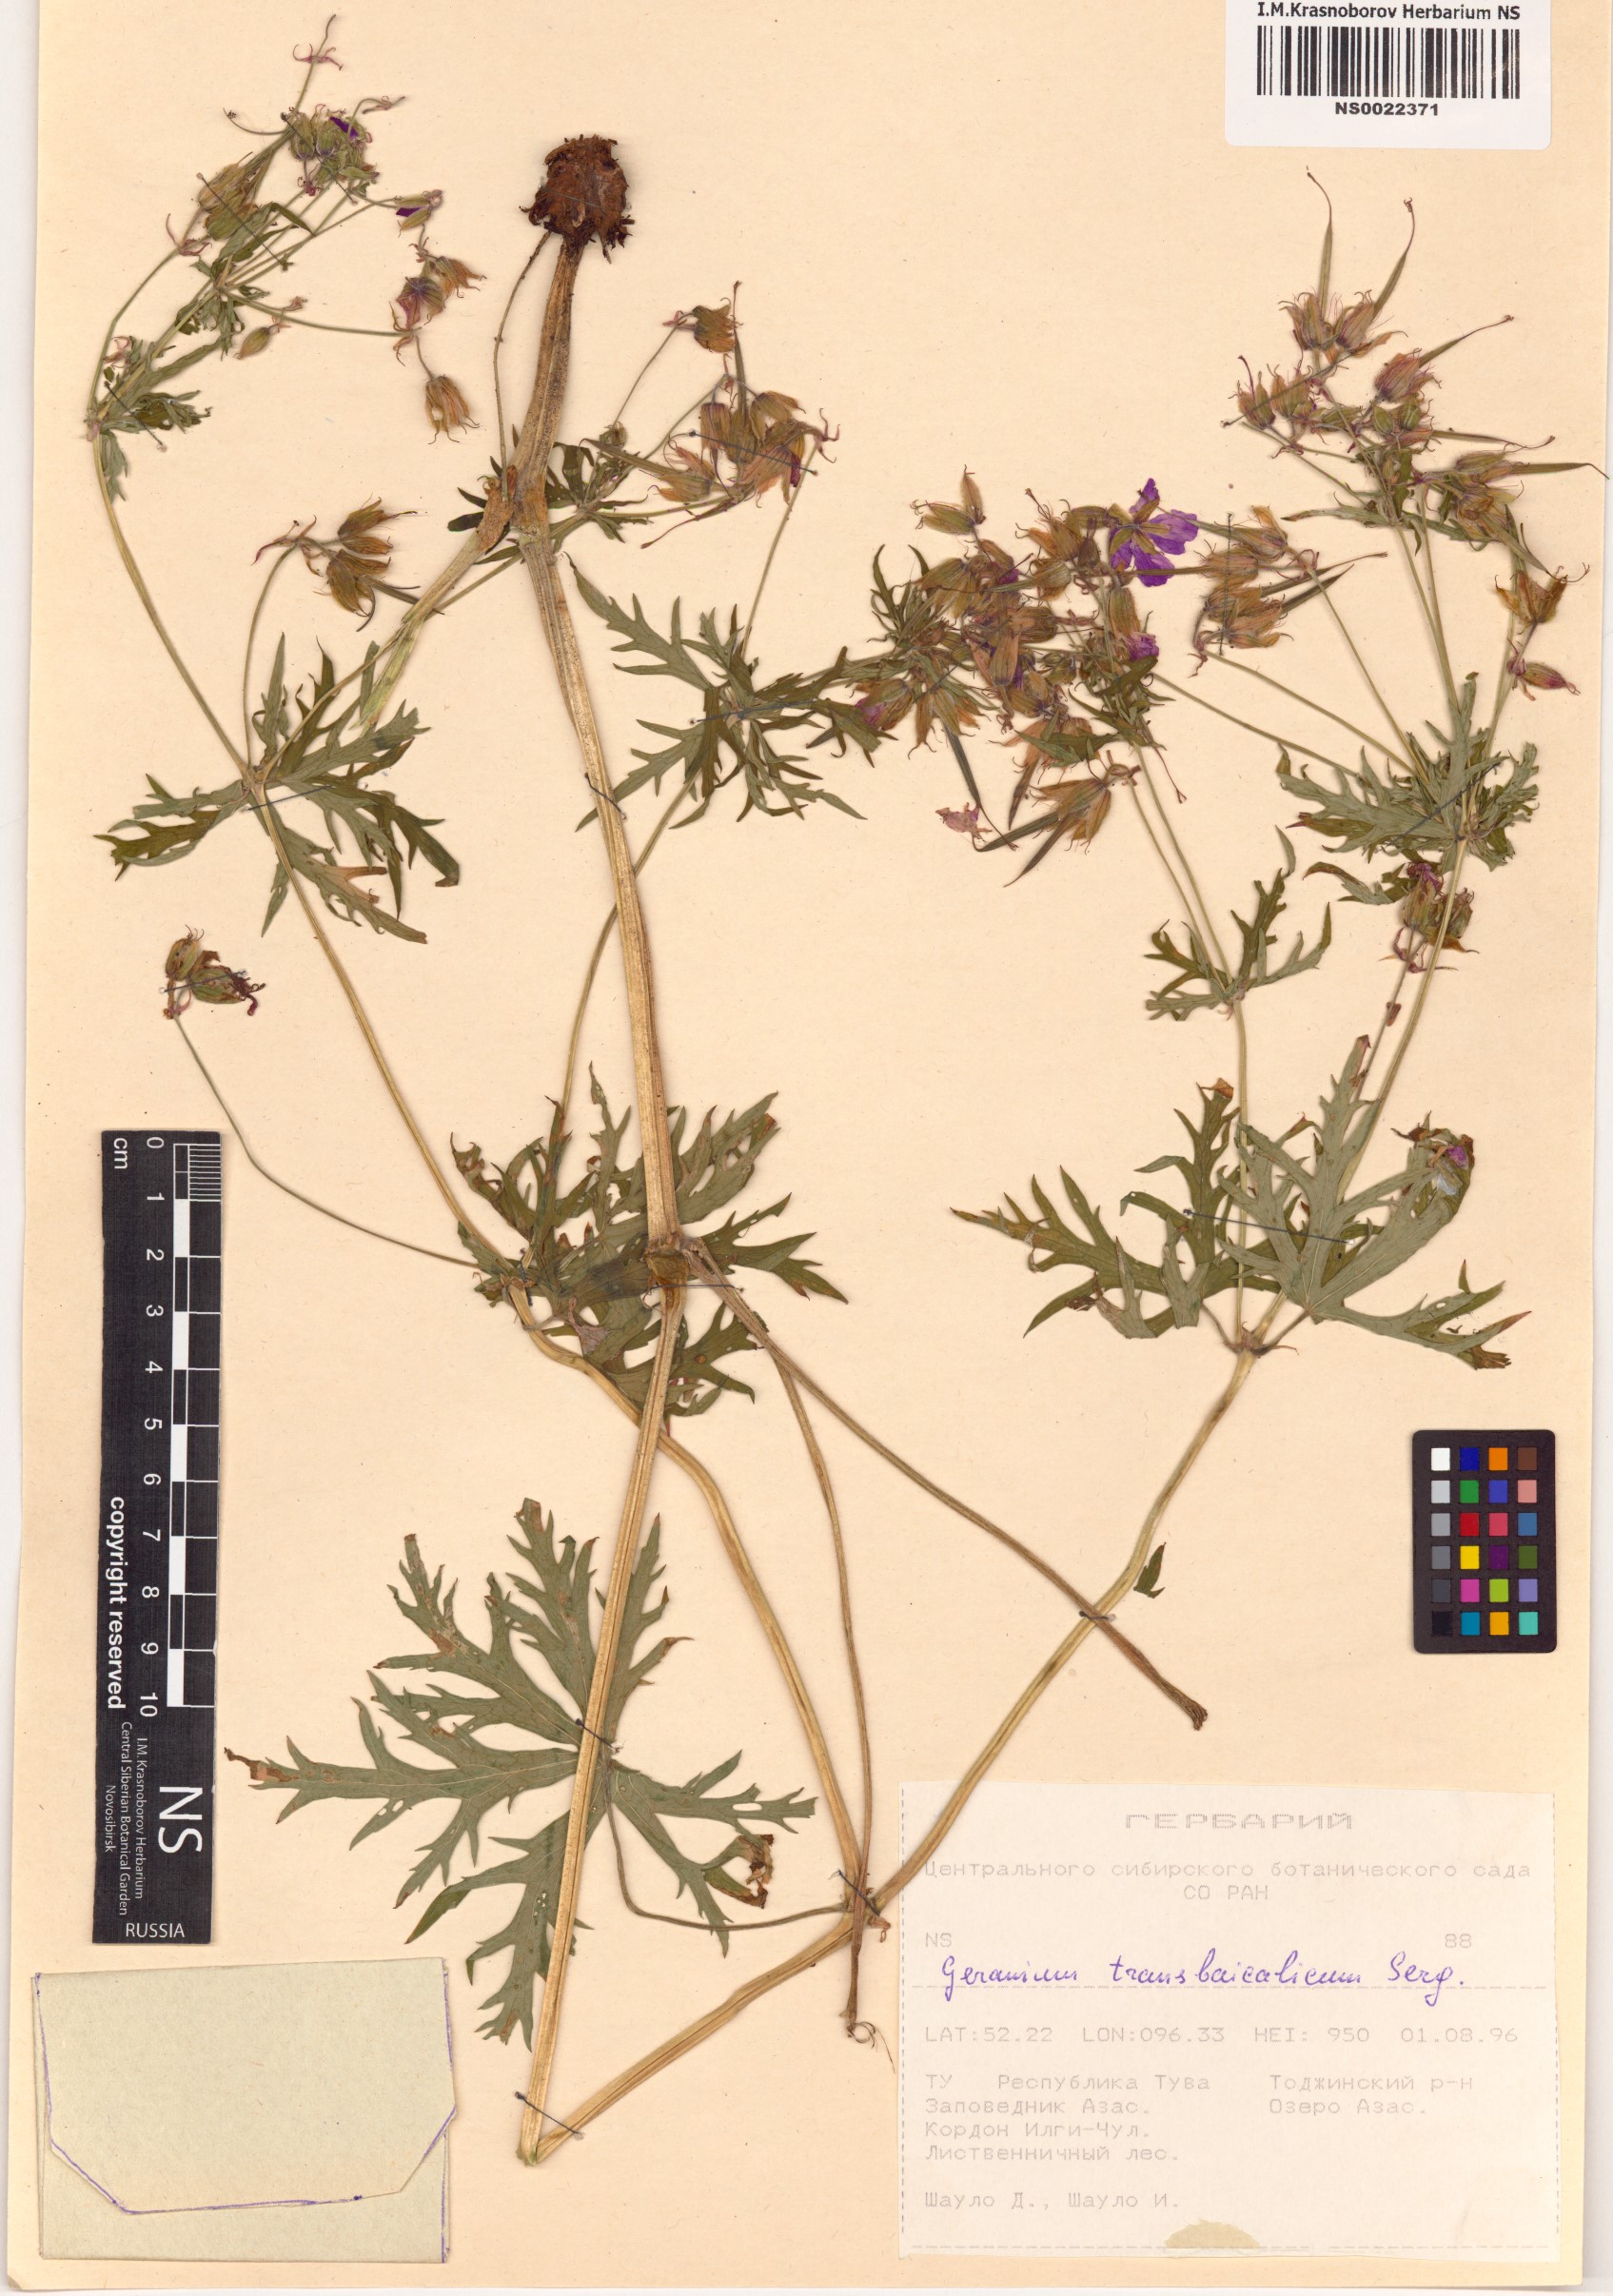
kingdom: Plantae
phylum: Tracheophyta
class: Magnoliopsida
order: Geraniales
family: Geraniaceae
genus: Geranium
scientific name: Geranium pratense
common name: Meadow crane's-bill
